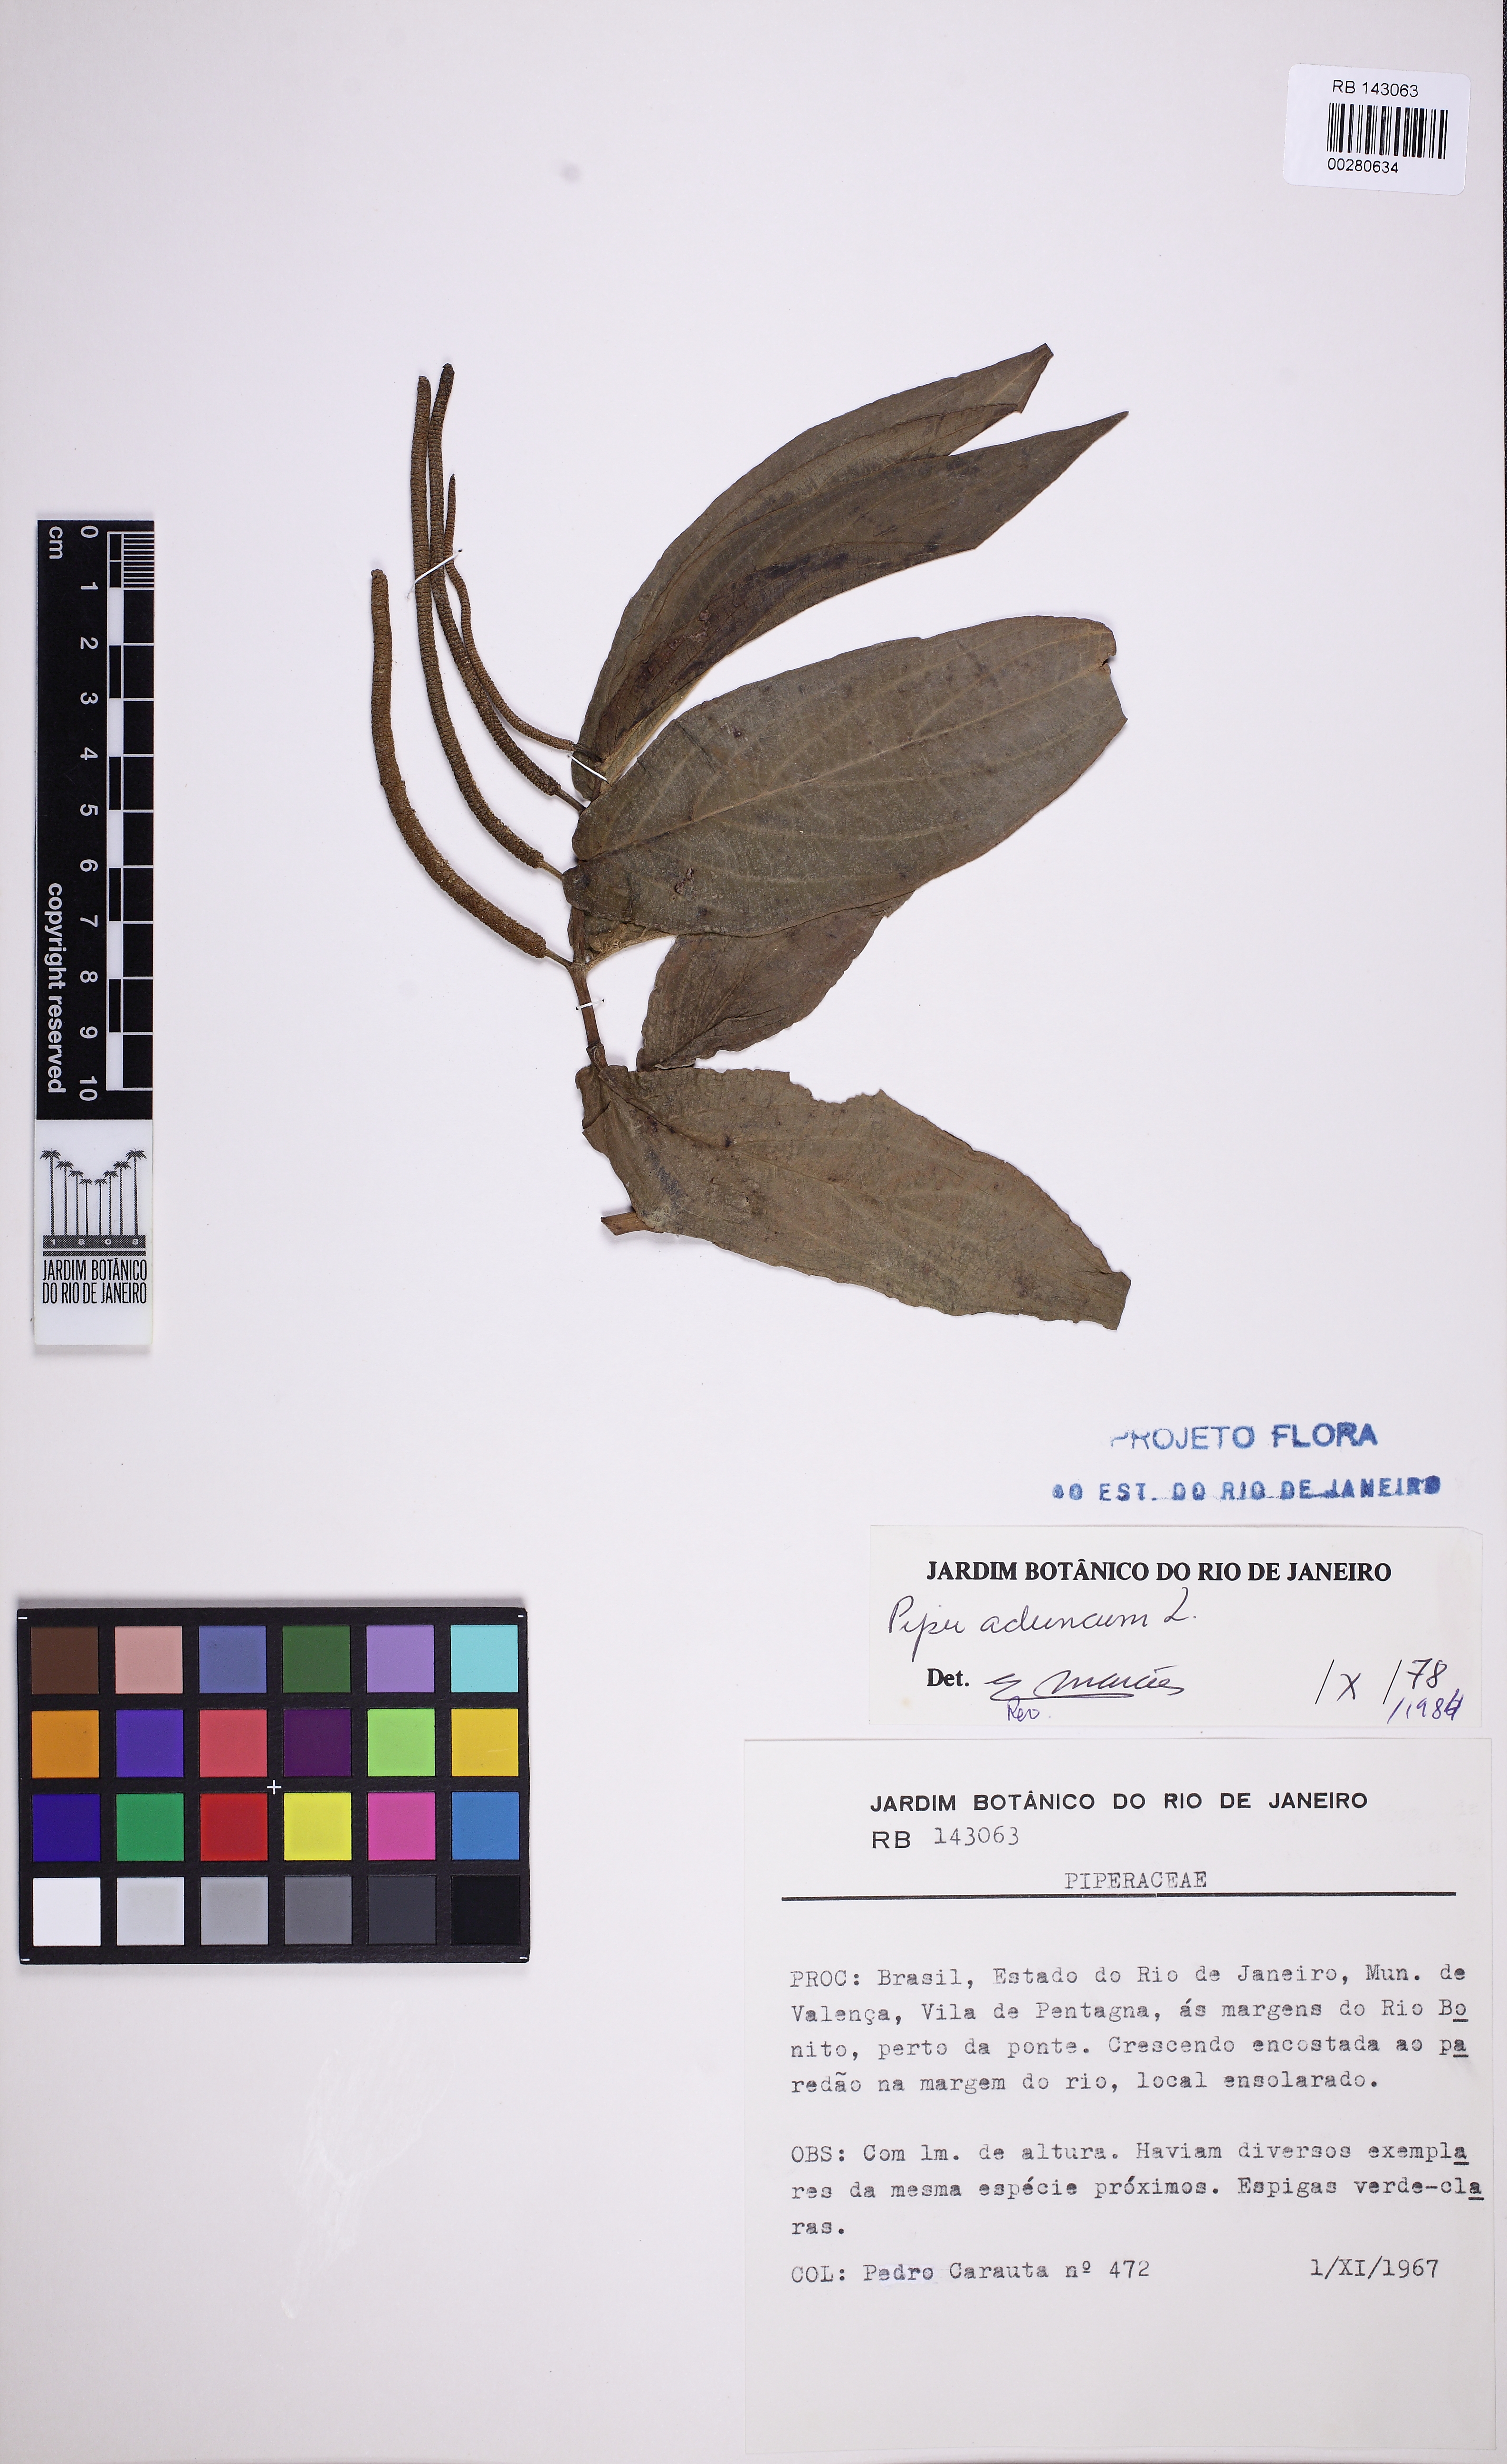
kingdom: Plantae
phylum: Tracheophyta
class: Magnoliopsida
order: Piperales
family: Piperaceae
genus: Piper
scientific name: Piper aduncum
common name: Spiked pepper
